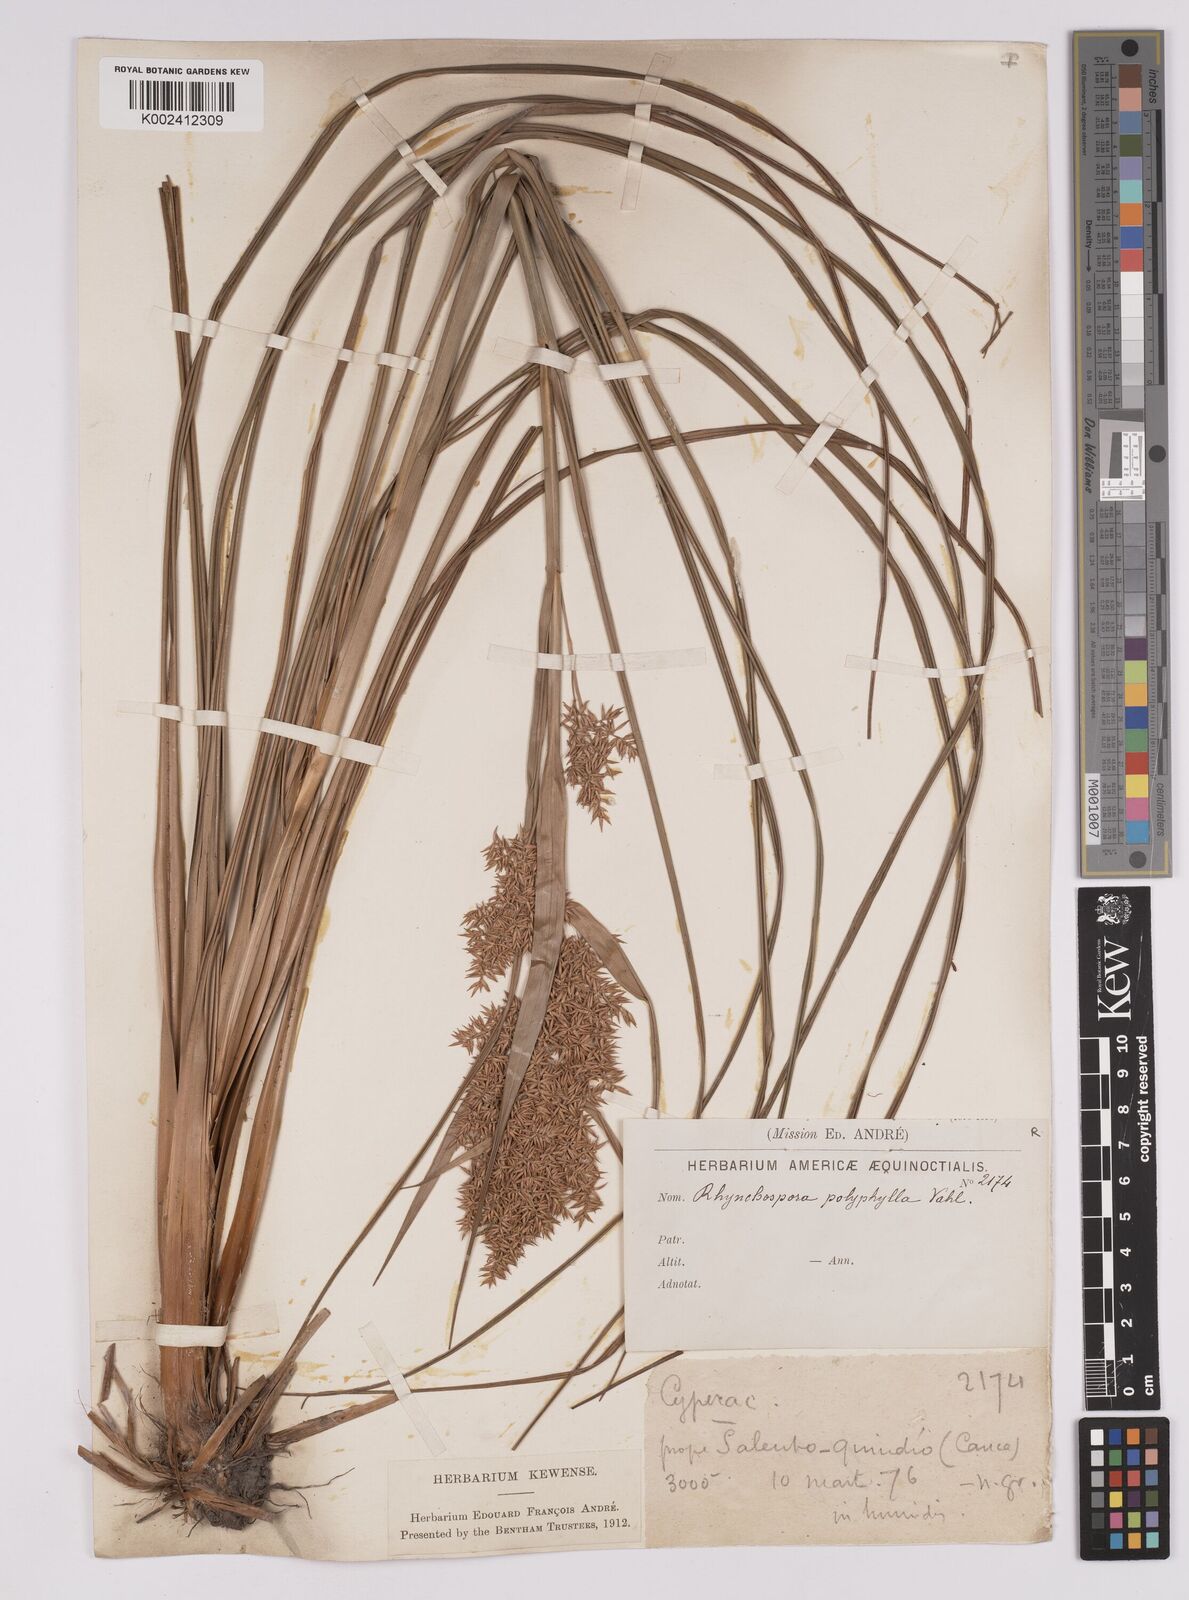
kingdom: Plantae
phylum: Tracheophyta
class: Liliopsida
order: Poales
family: Cyperaceae
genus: Rhynchospora
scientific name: Rhynchospora polyphylla
